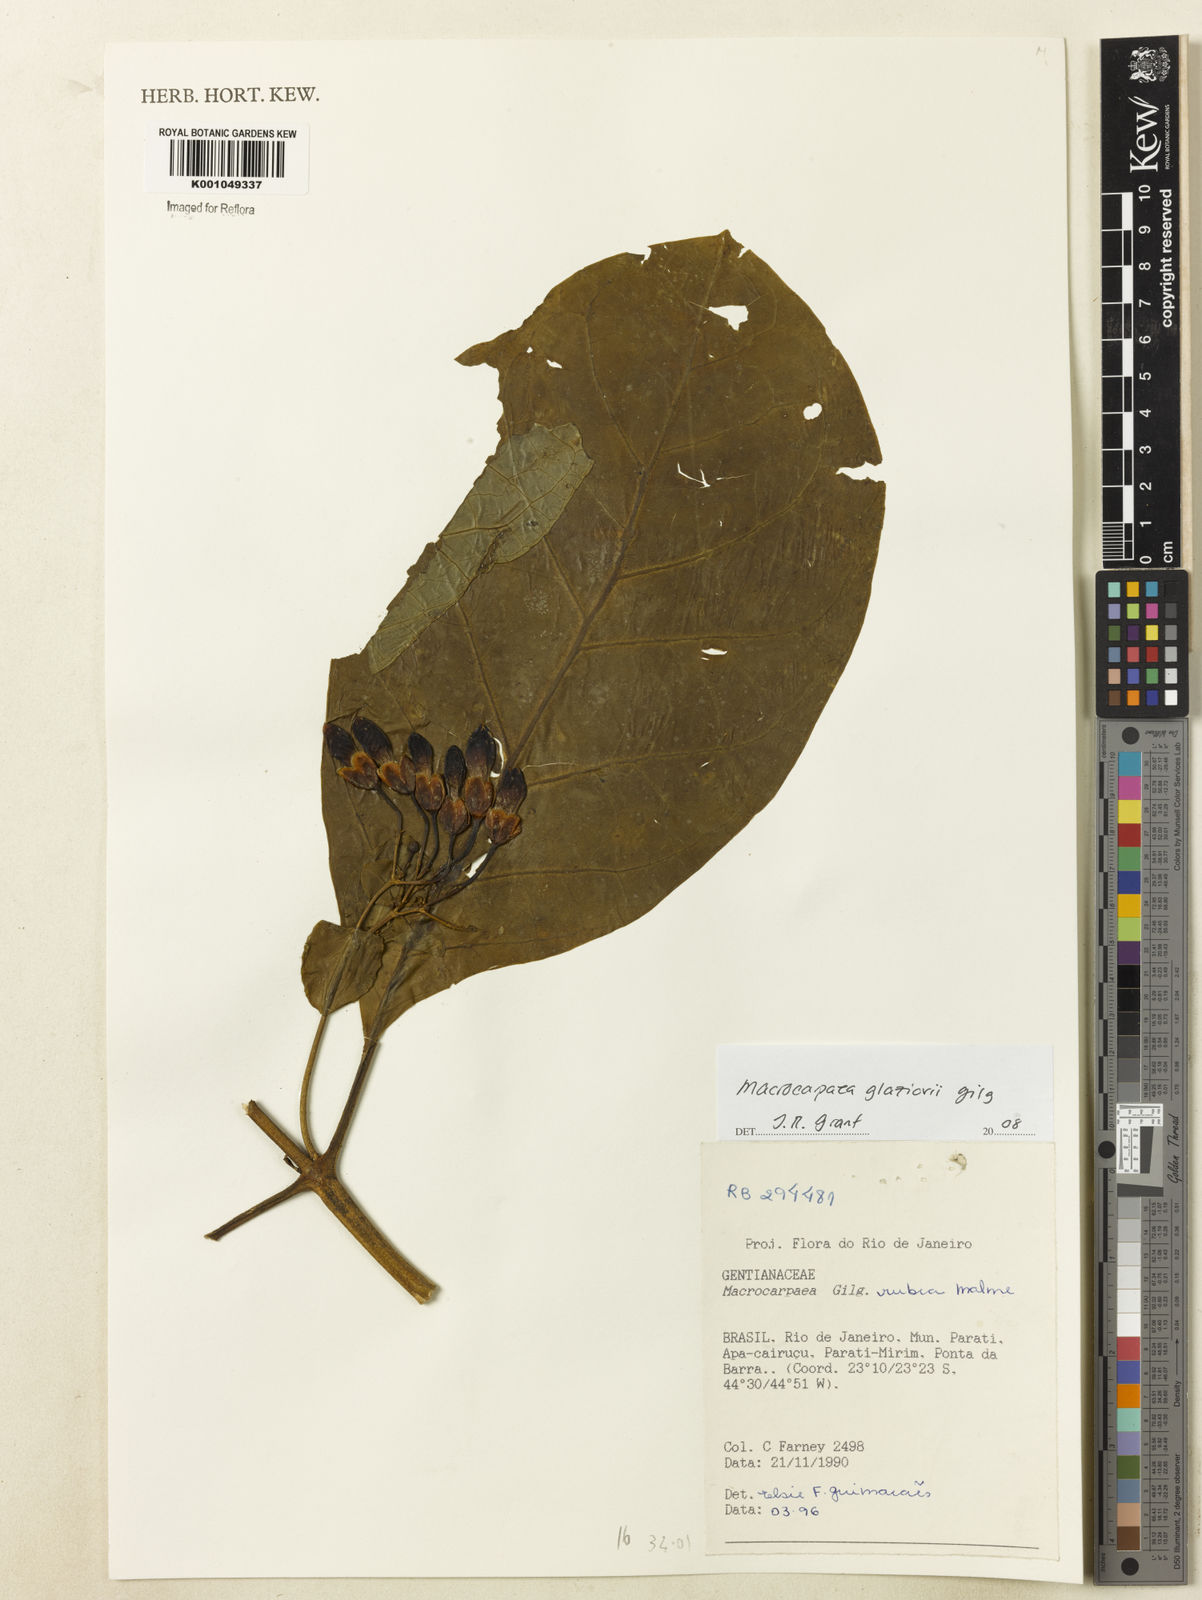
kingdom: Plantae
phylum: Tracheophyta
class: Magnoliopsida
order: Gentianales
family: Gentianaceae
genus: Macrocarpaea
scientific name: Macrocarpaea glaziovii
